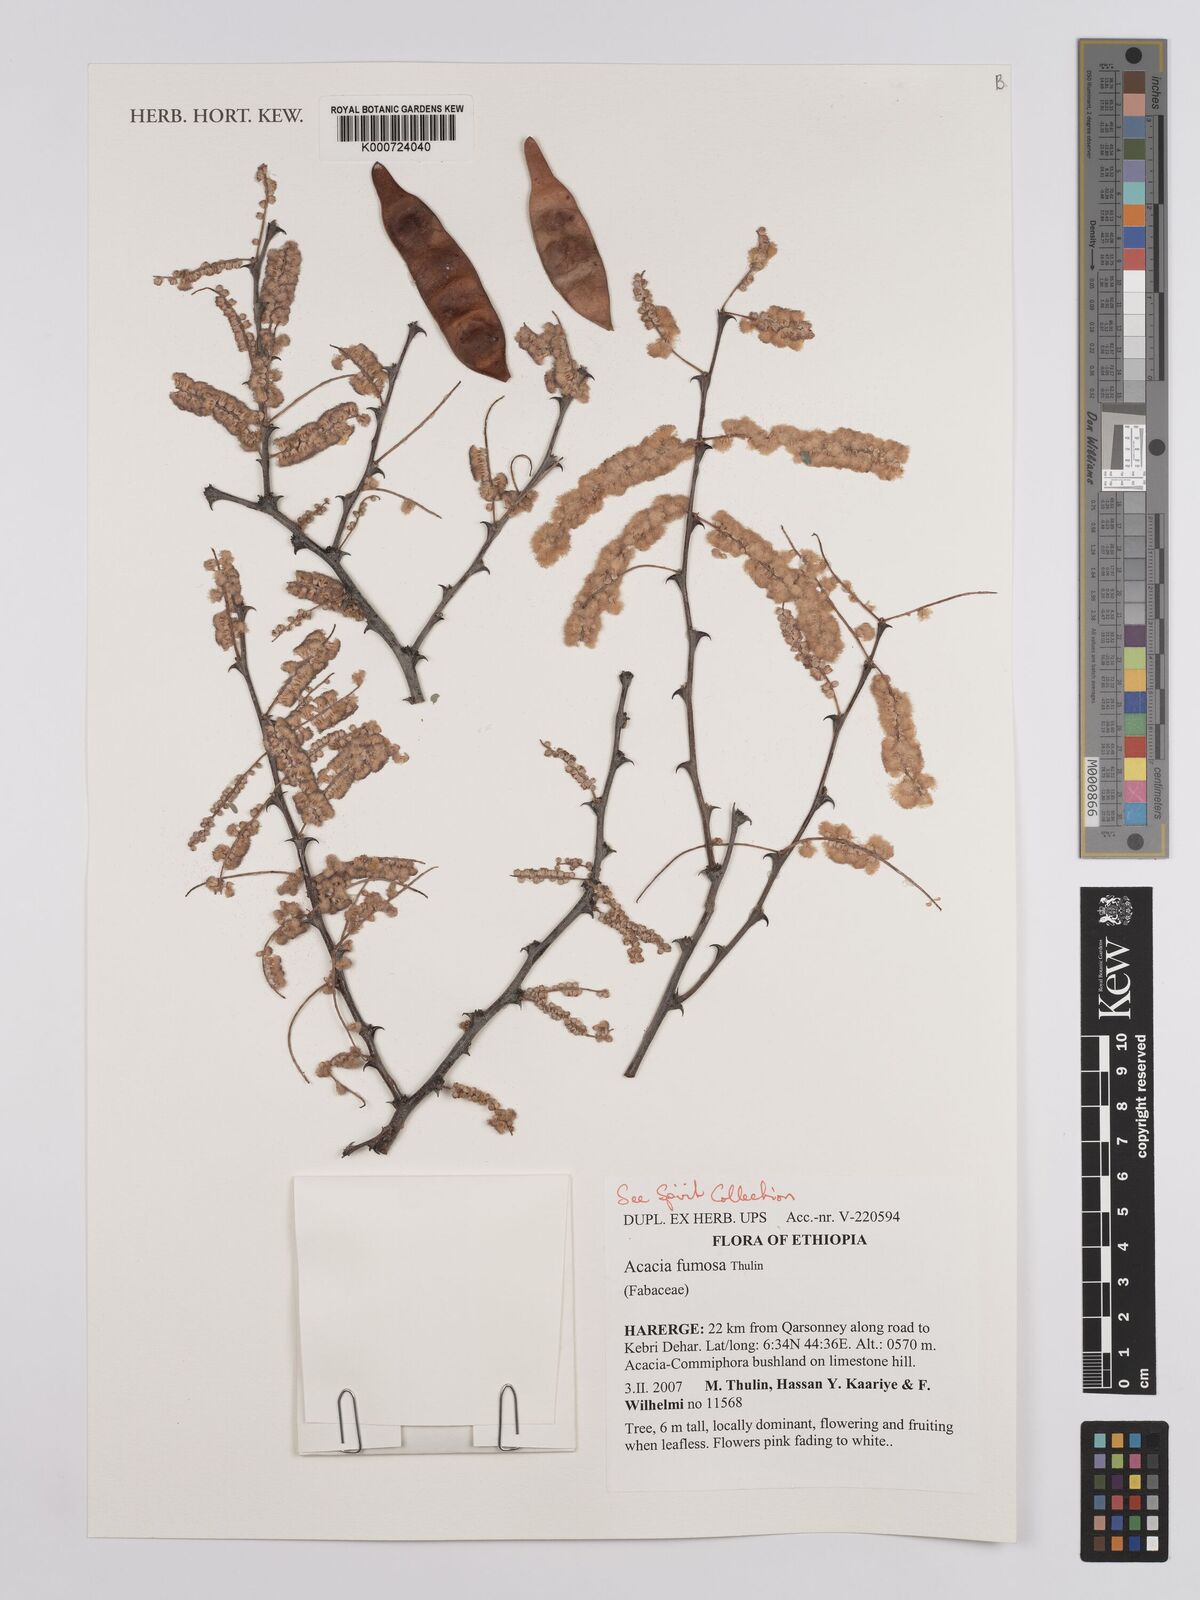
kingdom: Plantae
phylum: Tracheophyta
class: Magnoliopsida
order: Fabales
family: Fabaceae
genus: Senegalia
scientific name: Senegalia fumosa
